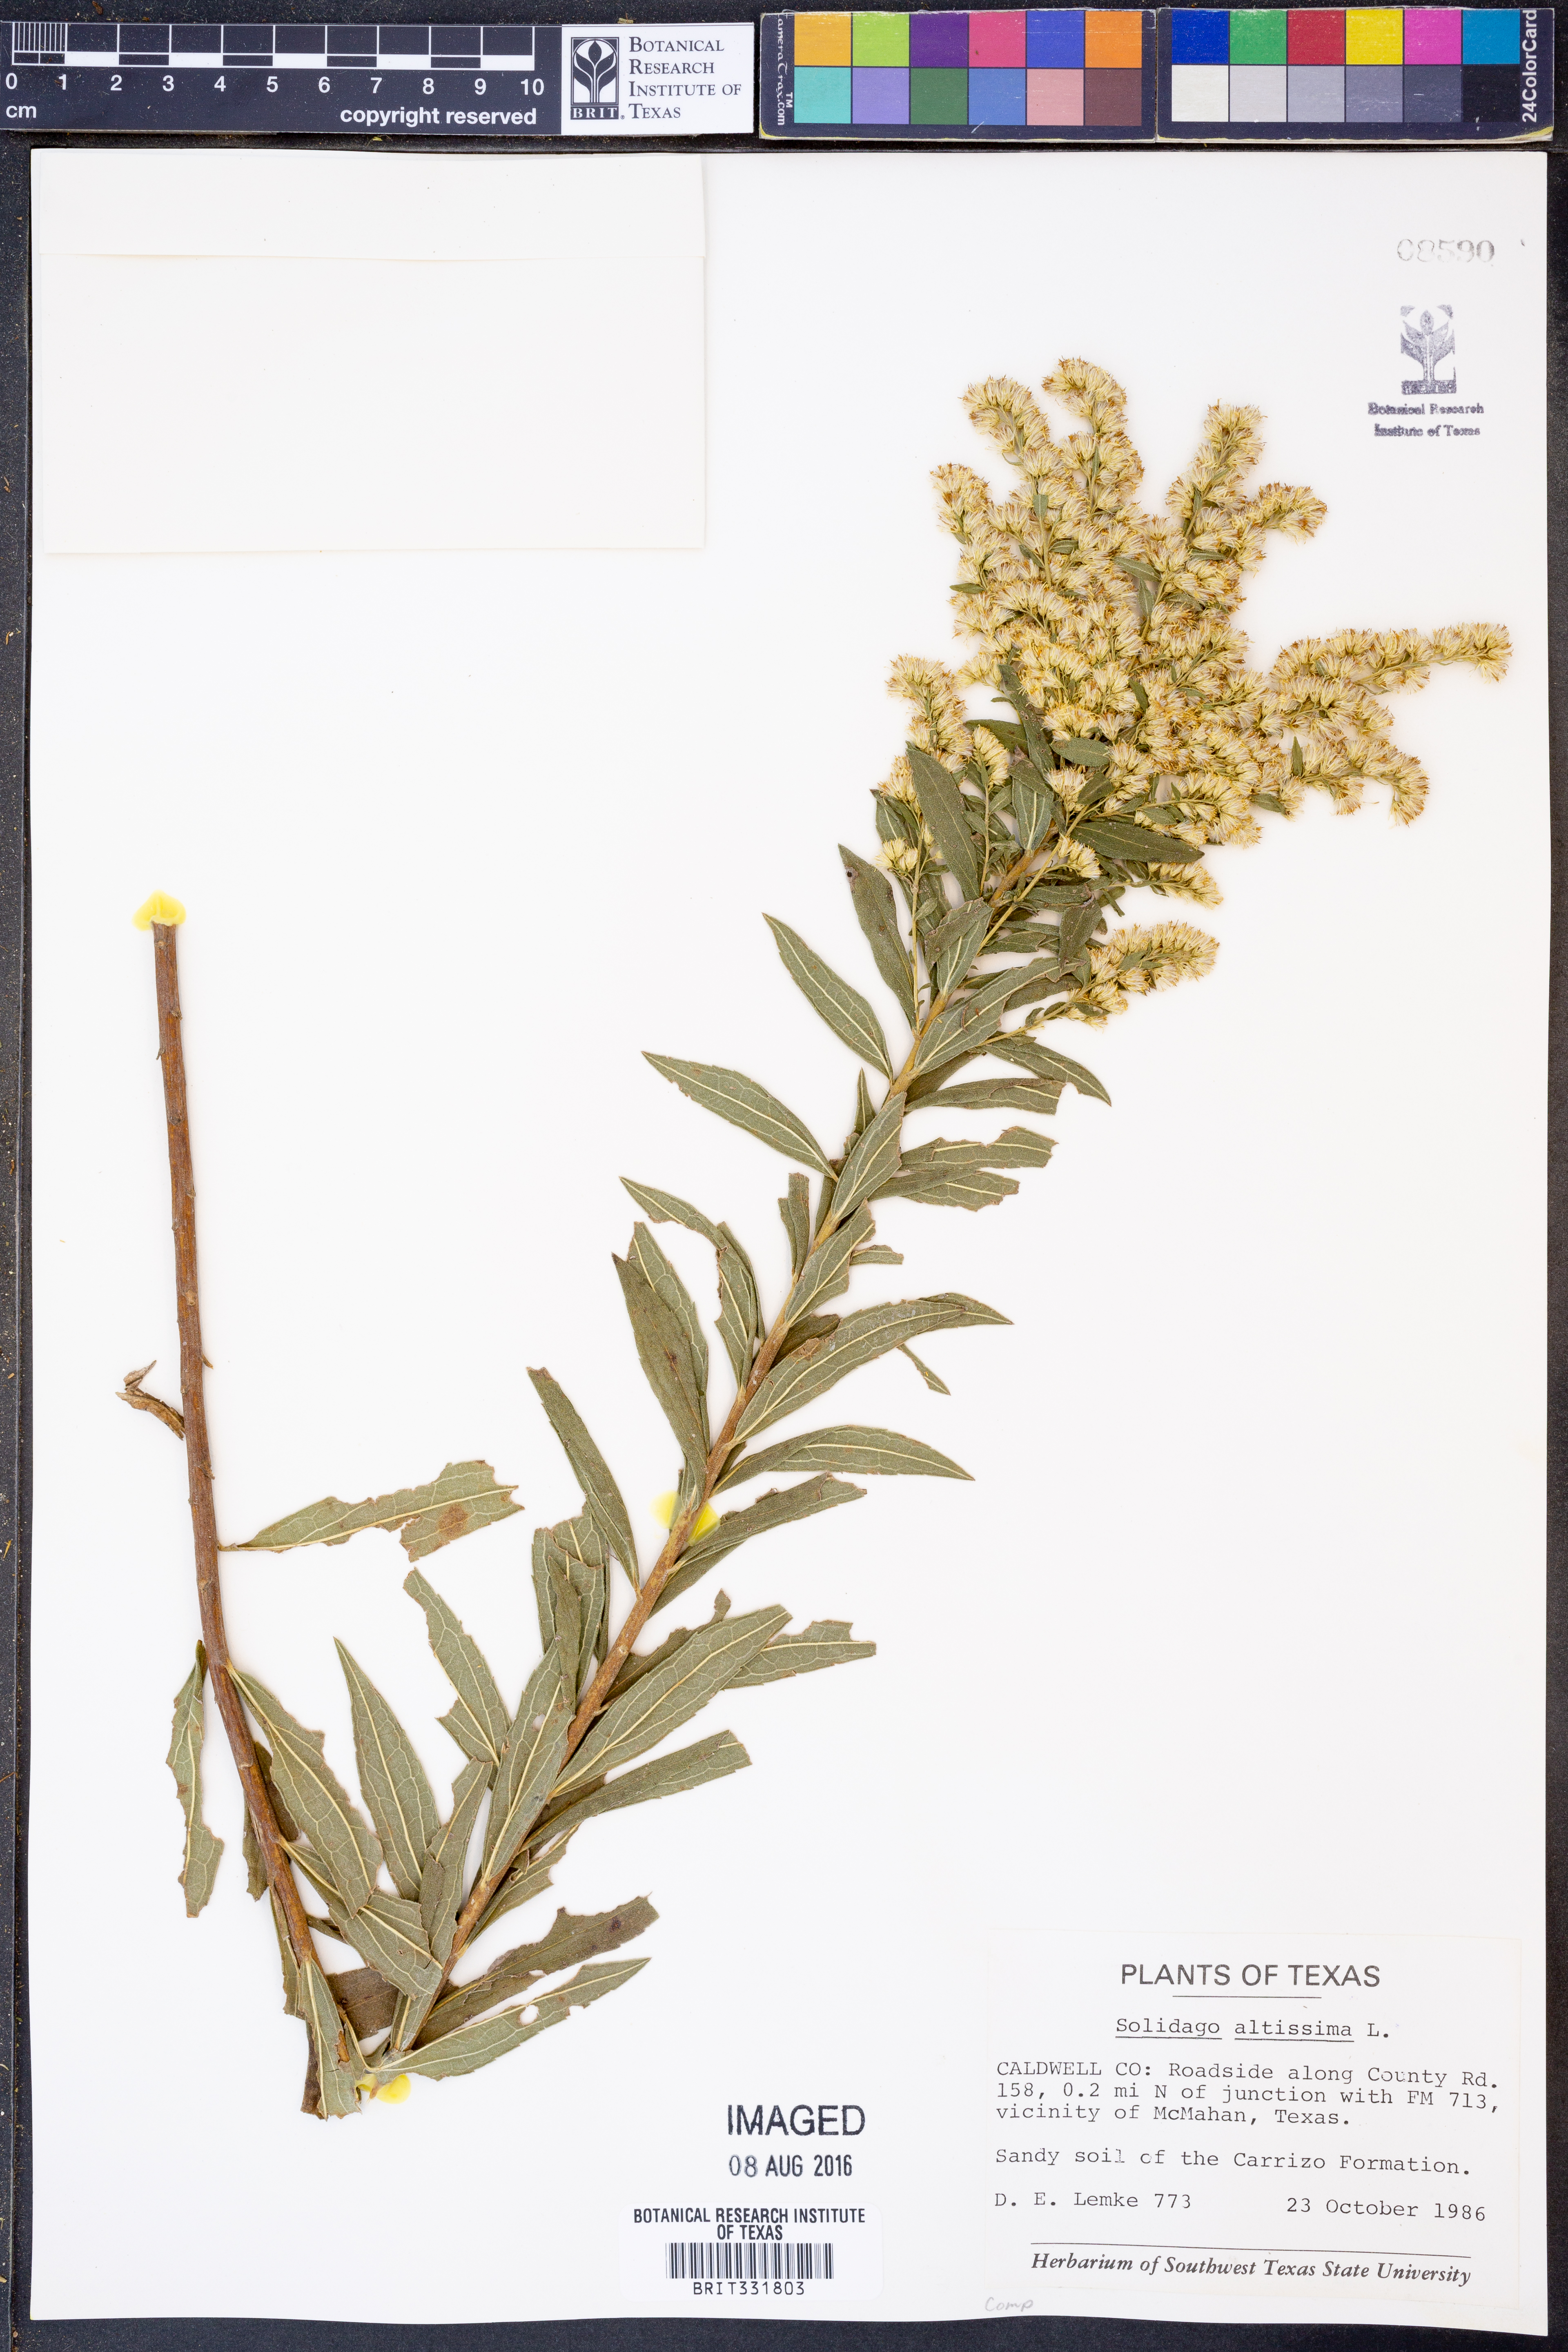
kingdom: Plantae
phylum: Tracheophyta
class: Magnoliopsida
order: Asterales
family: Asteraceae
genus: Solidago
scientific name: Solidago altissima
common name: Late goldenrod
